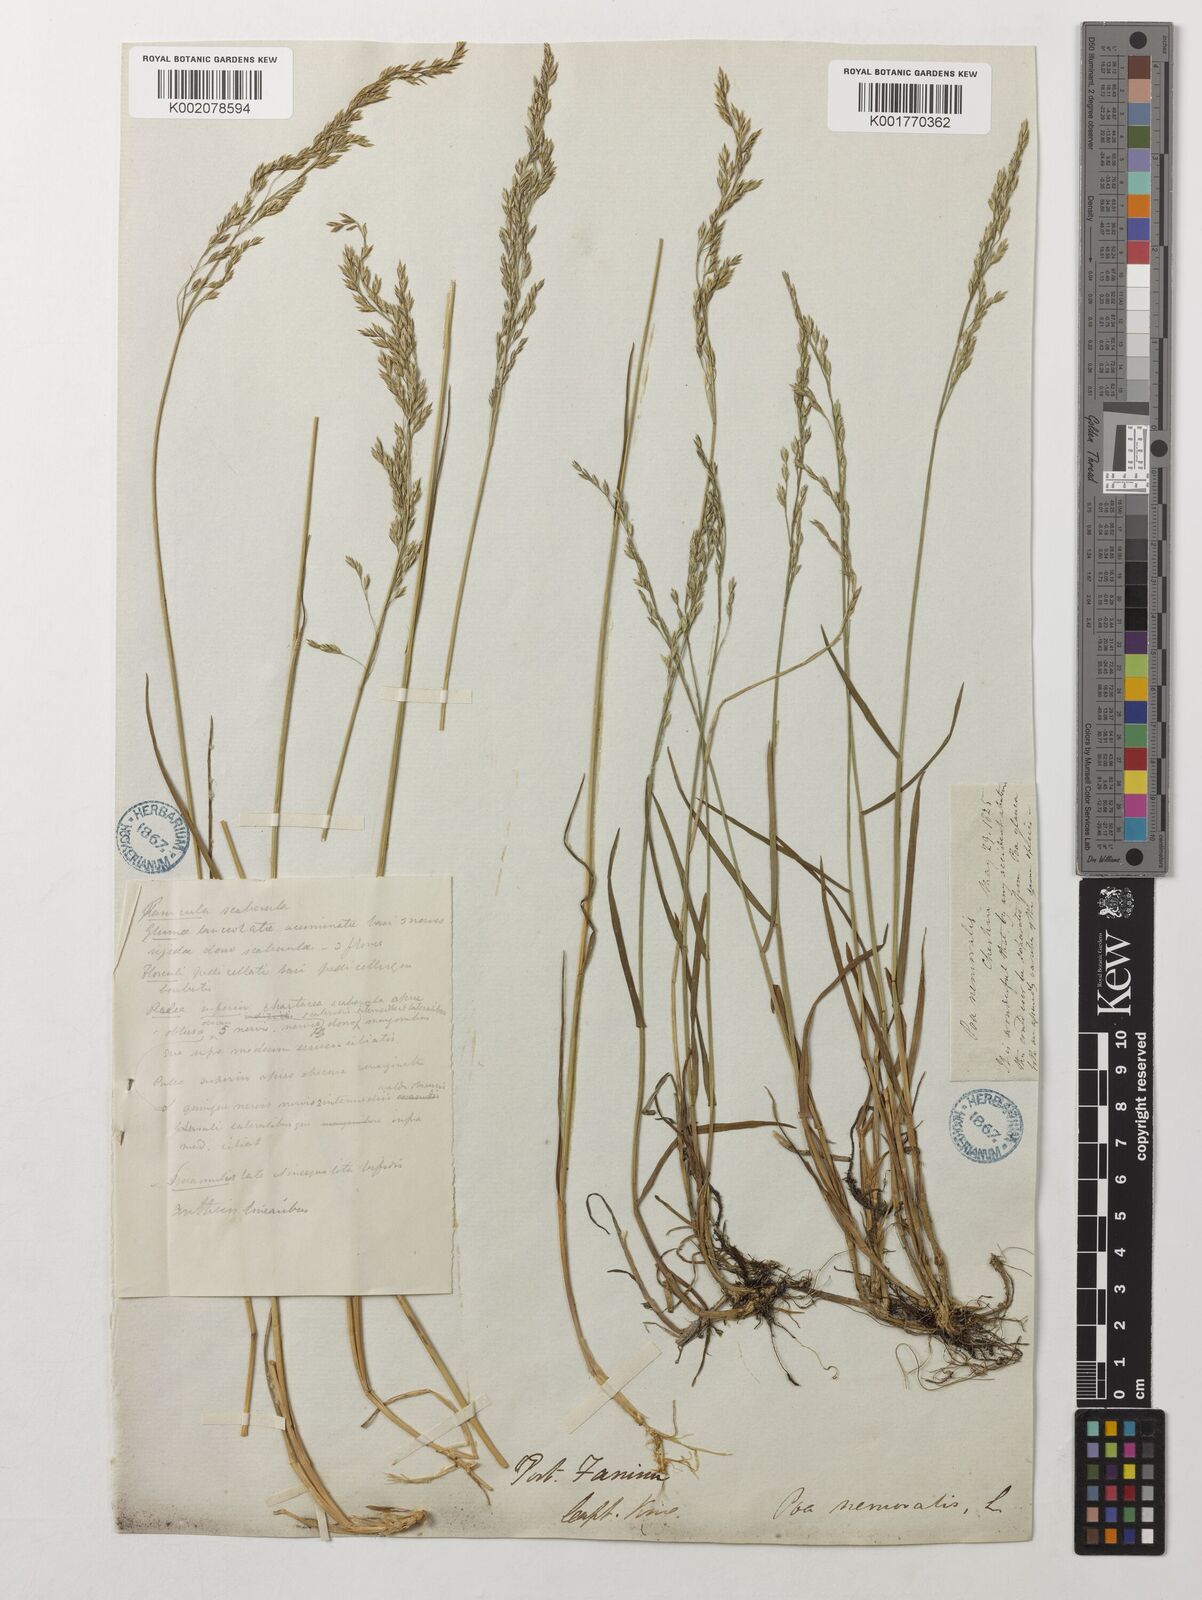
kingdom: Plantae
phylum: Tracheophyta
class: Liliopsida
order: Poales
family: Poaceae
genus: Poa
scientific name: Poa nemoralis
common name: Wood bluegrass
